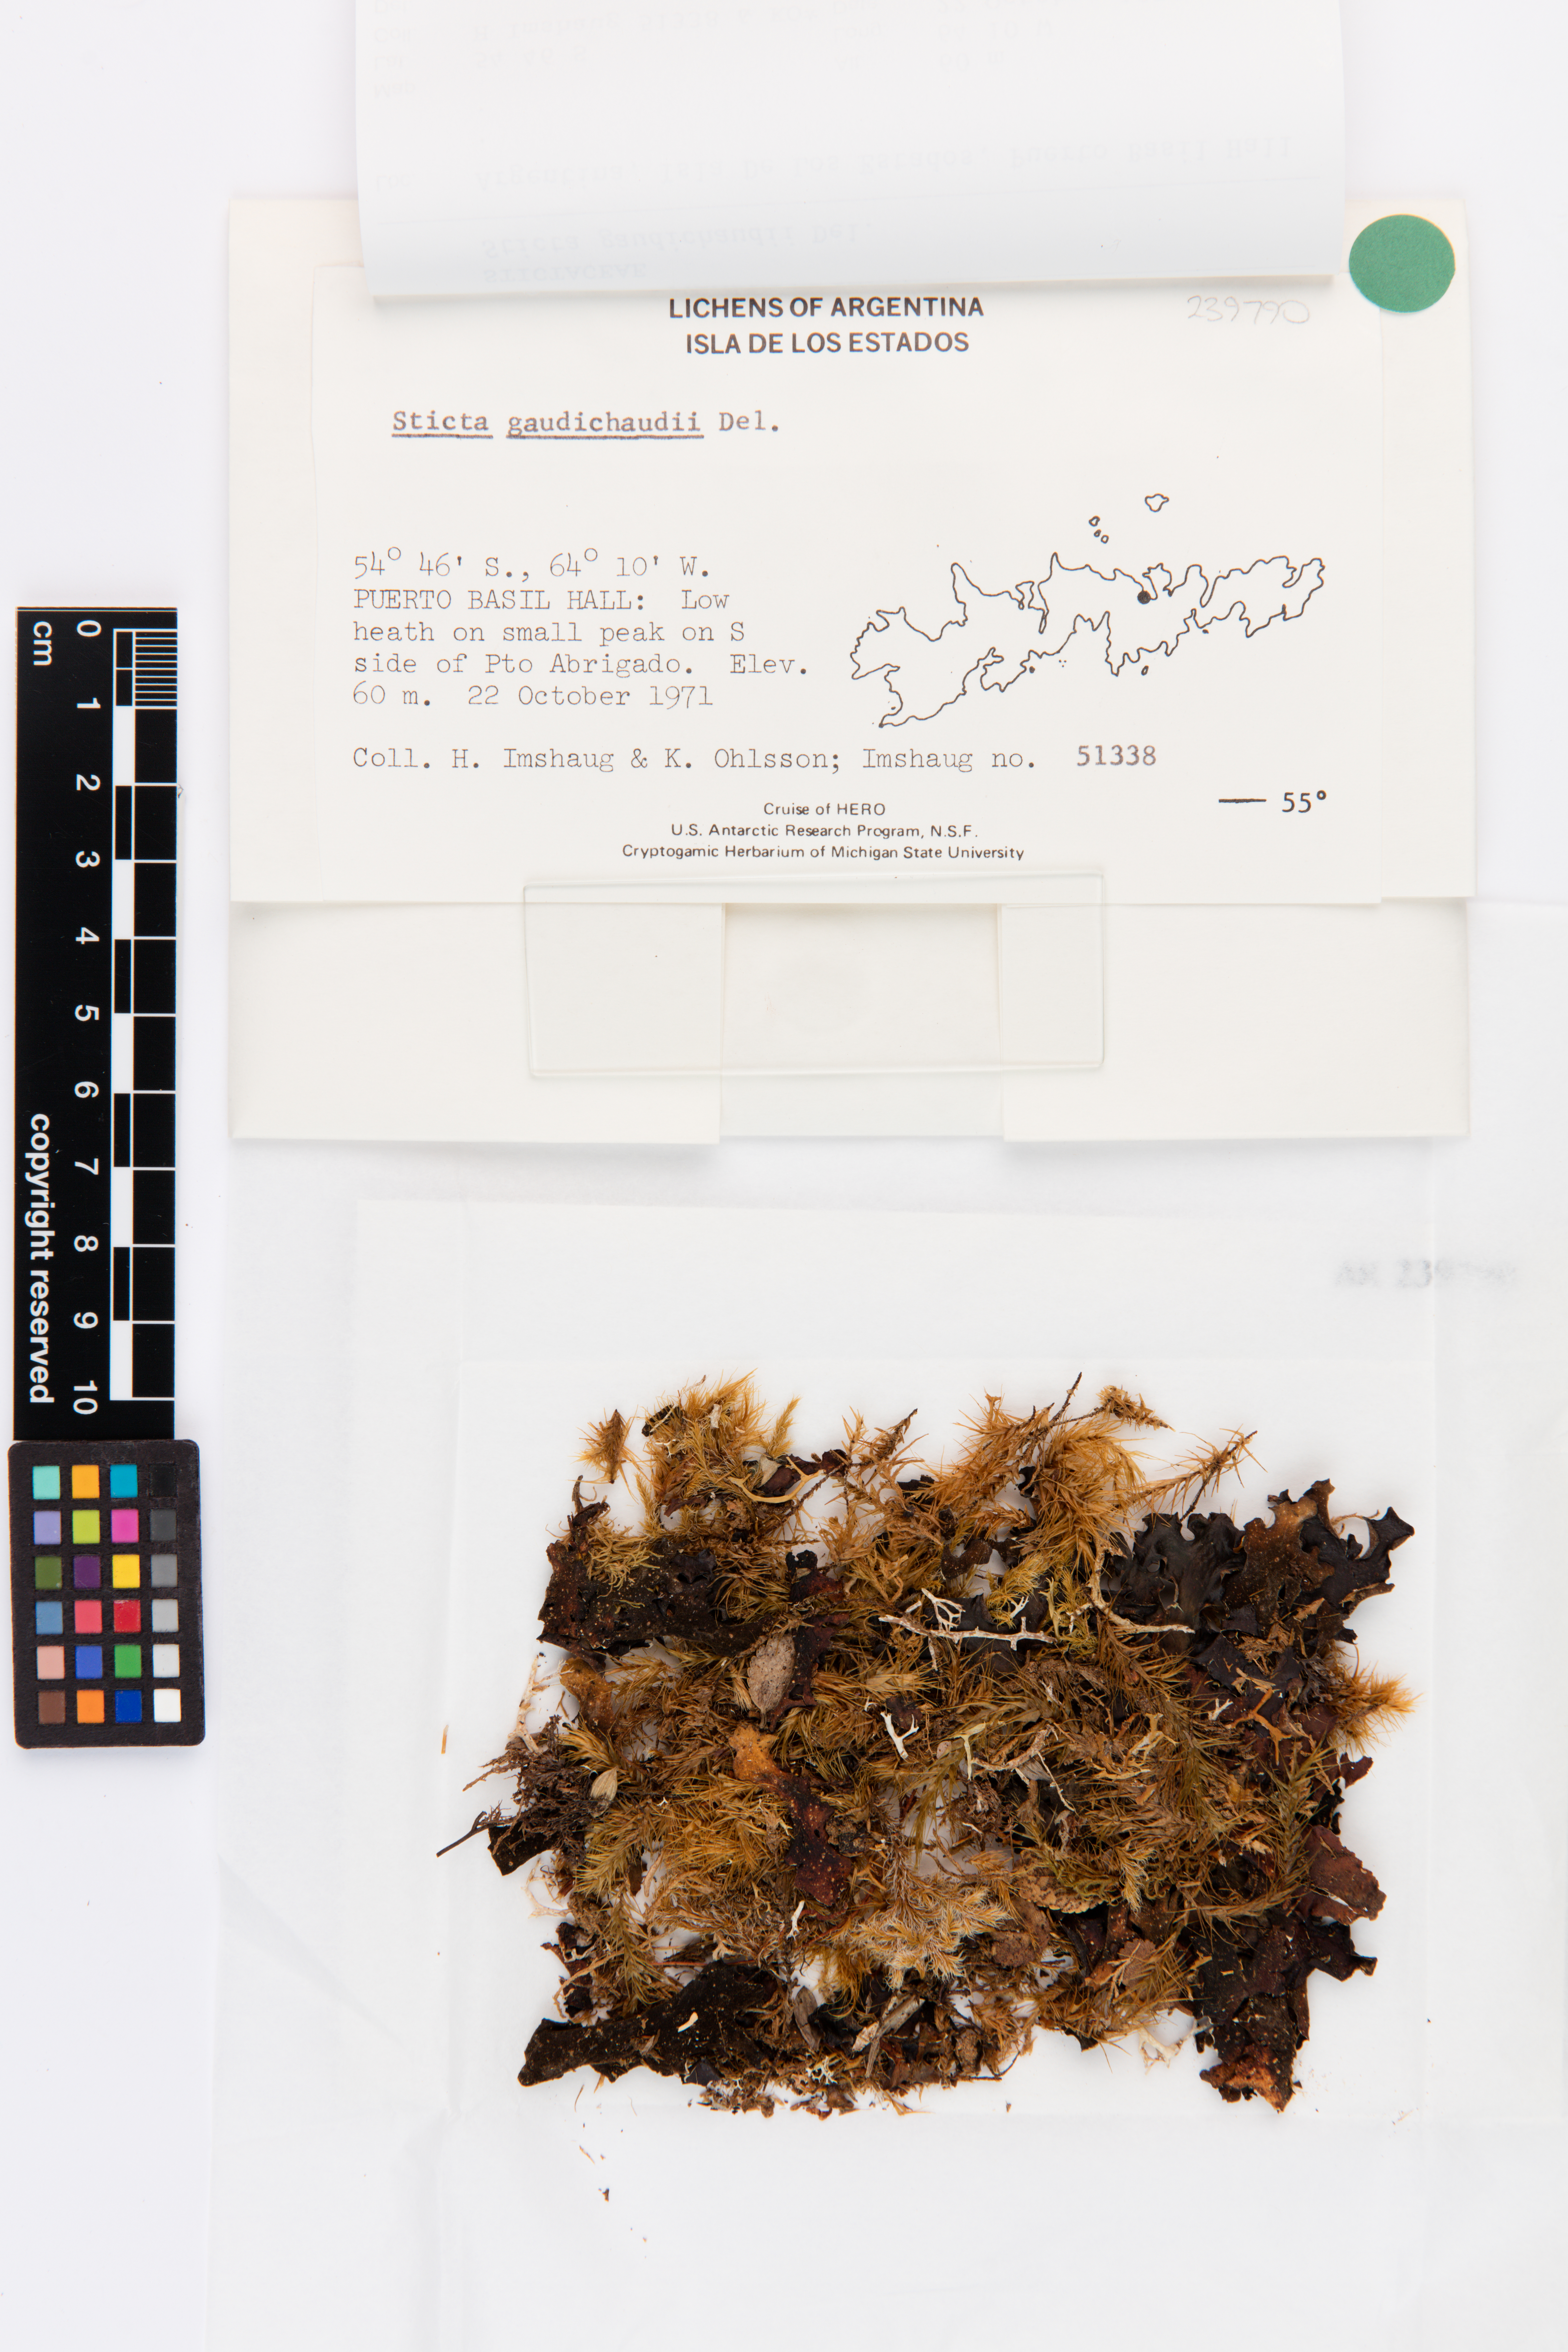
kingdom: Fungi
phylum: Ascomycota
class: Lecanoromycetes
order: Peltigerales
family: Lobariaceae
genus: Sticta
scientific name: Sticta gaudichaudii
